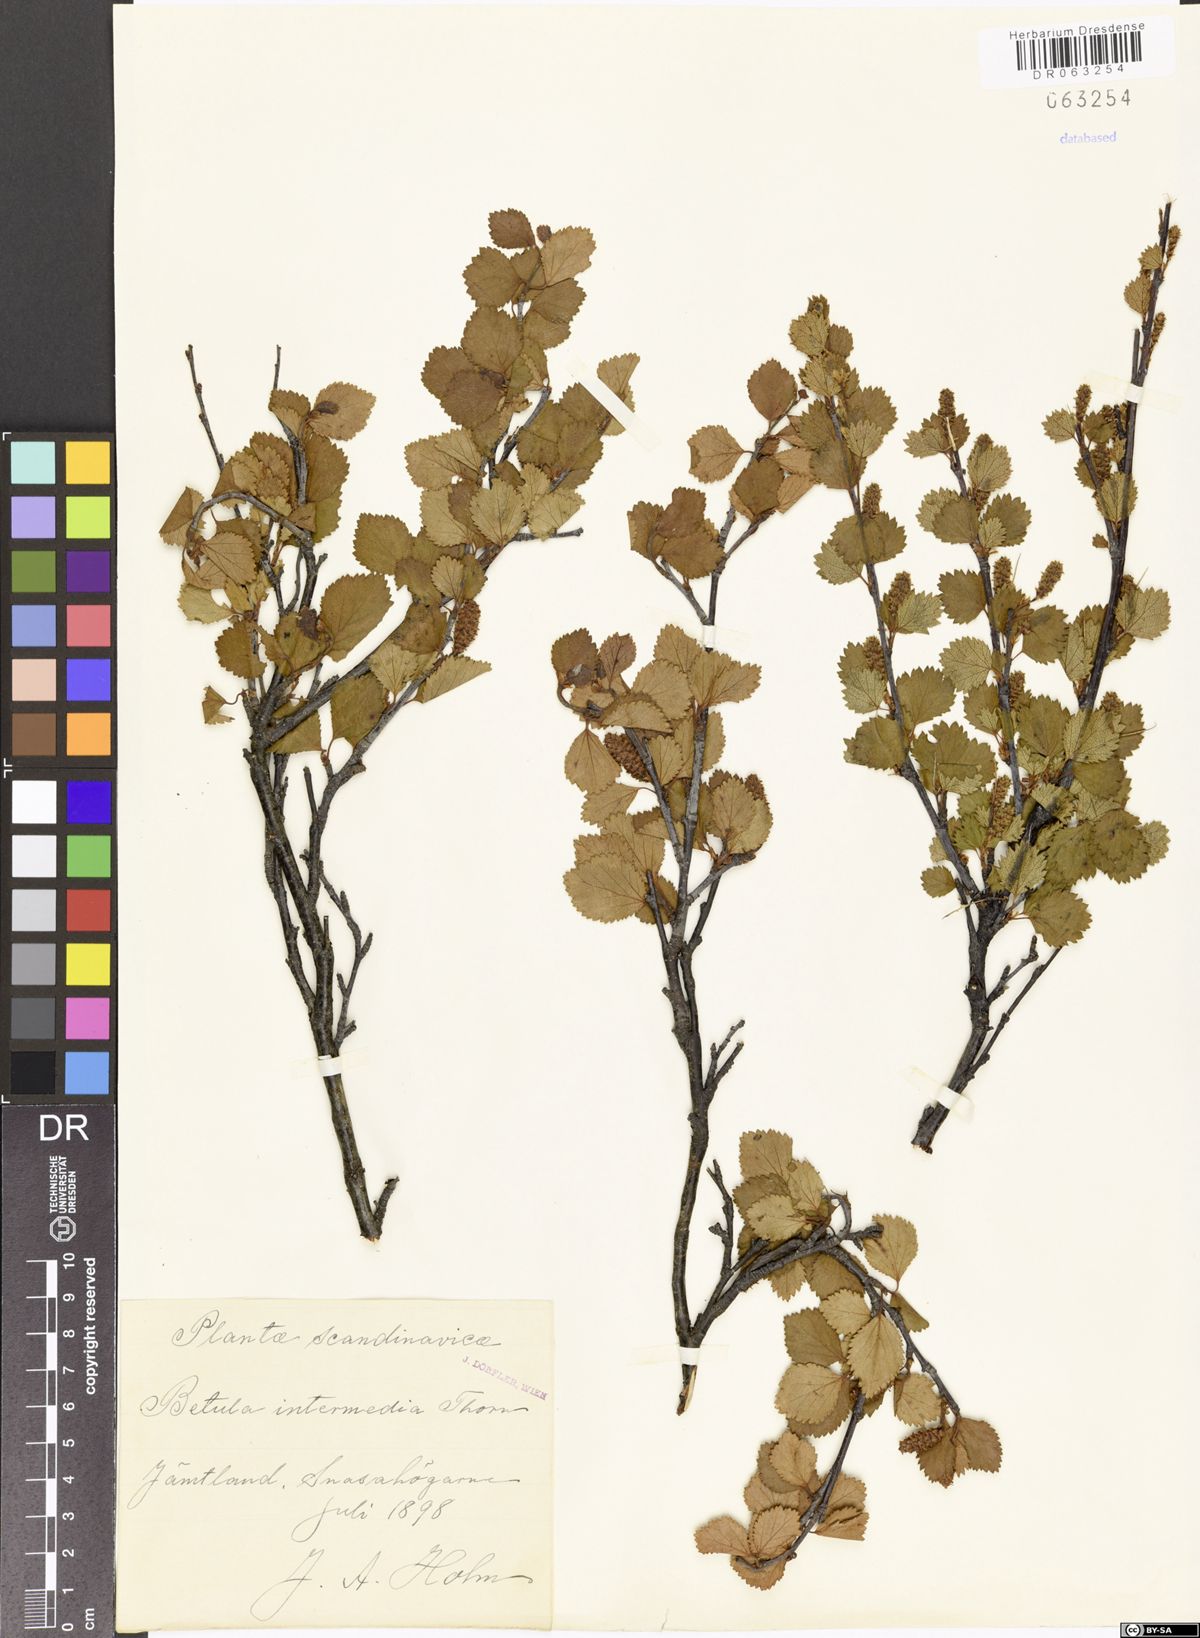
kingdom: Plantae
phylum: Tracheophyta
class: Magnoliopsida
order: Fagales
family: Betulaceae
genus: Betula
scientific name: Betula intermedia
